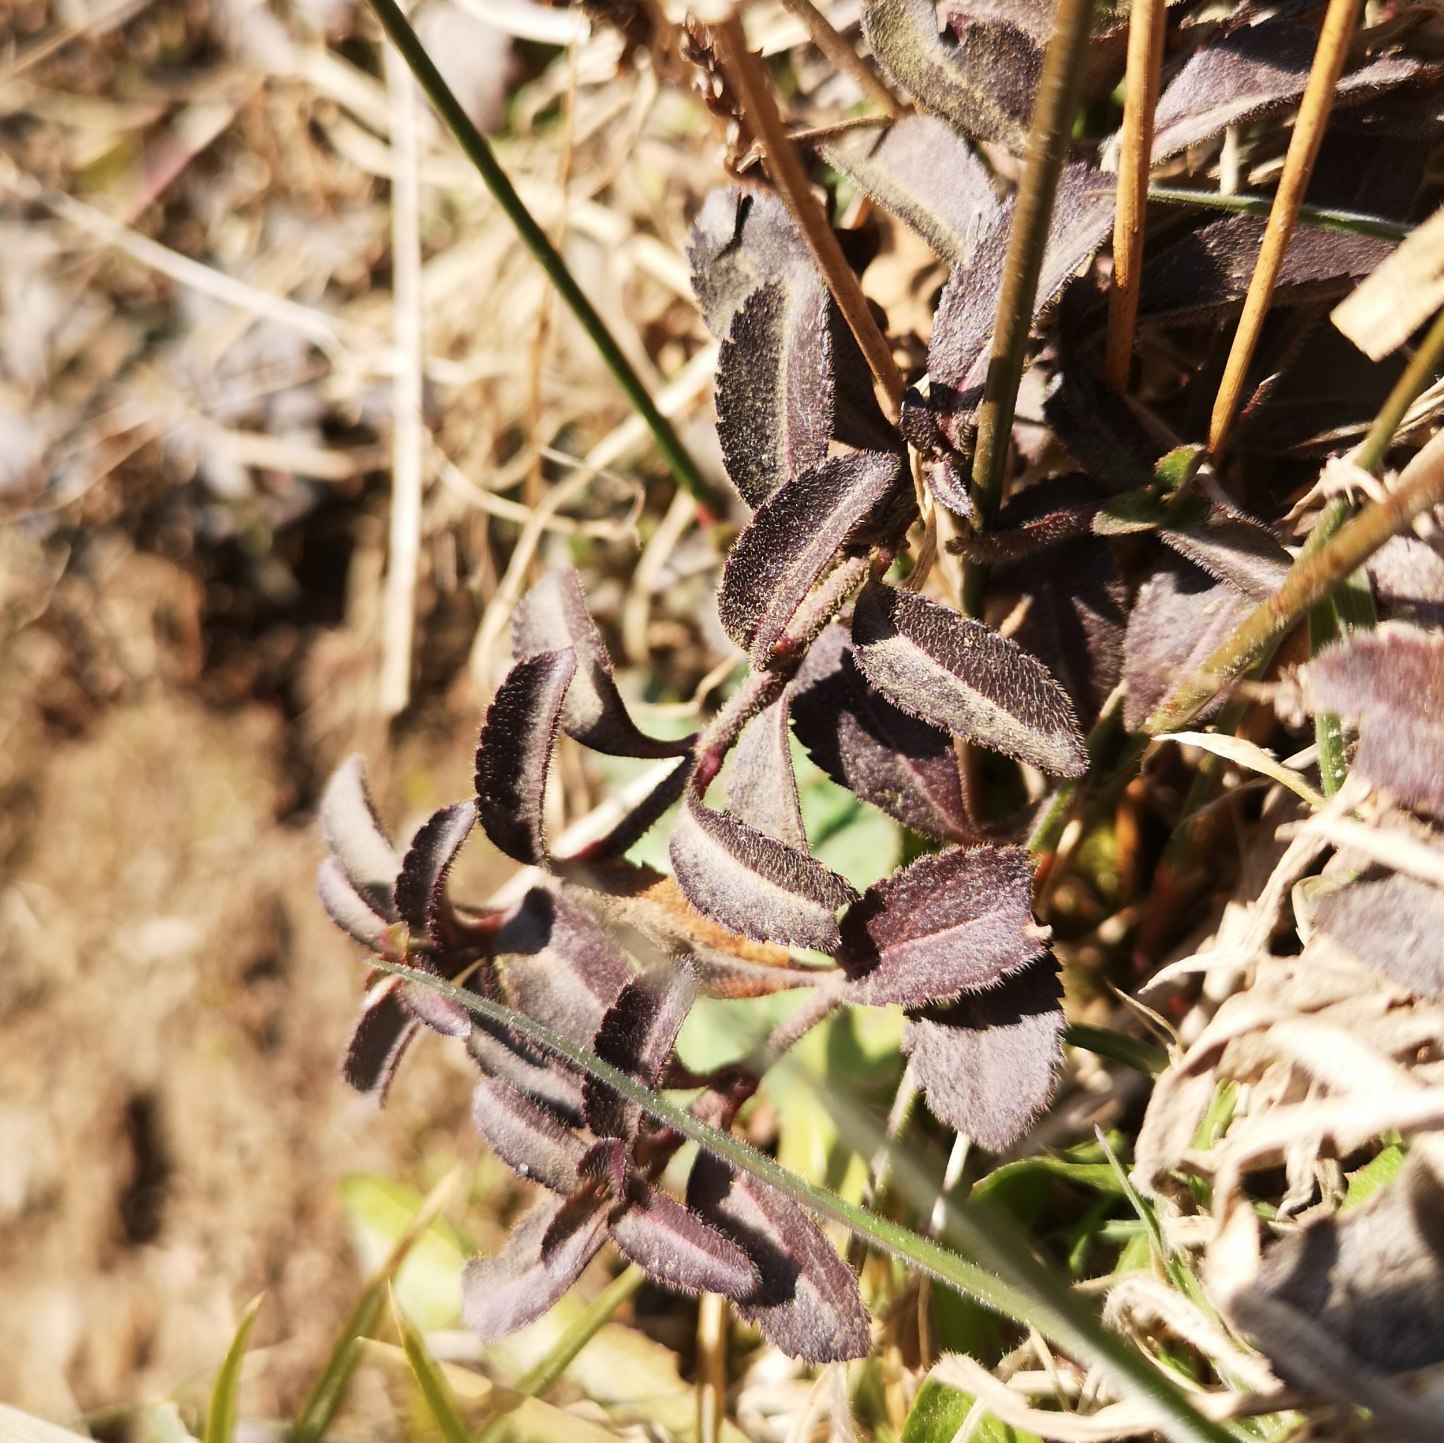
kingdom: Plantae
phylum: Tracheophyta
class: Magnoliopsida
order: Lamiales
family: Plantaginaceae
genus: Veronica
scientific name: Veronica officinalis
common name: Læge-ærenpris
